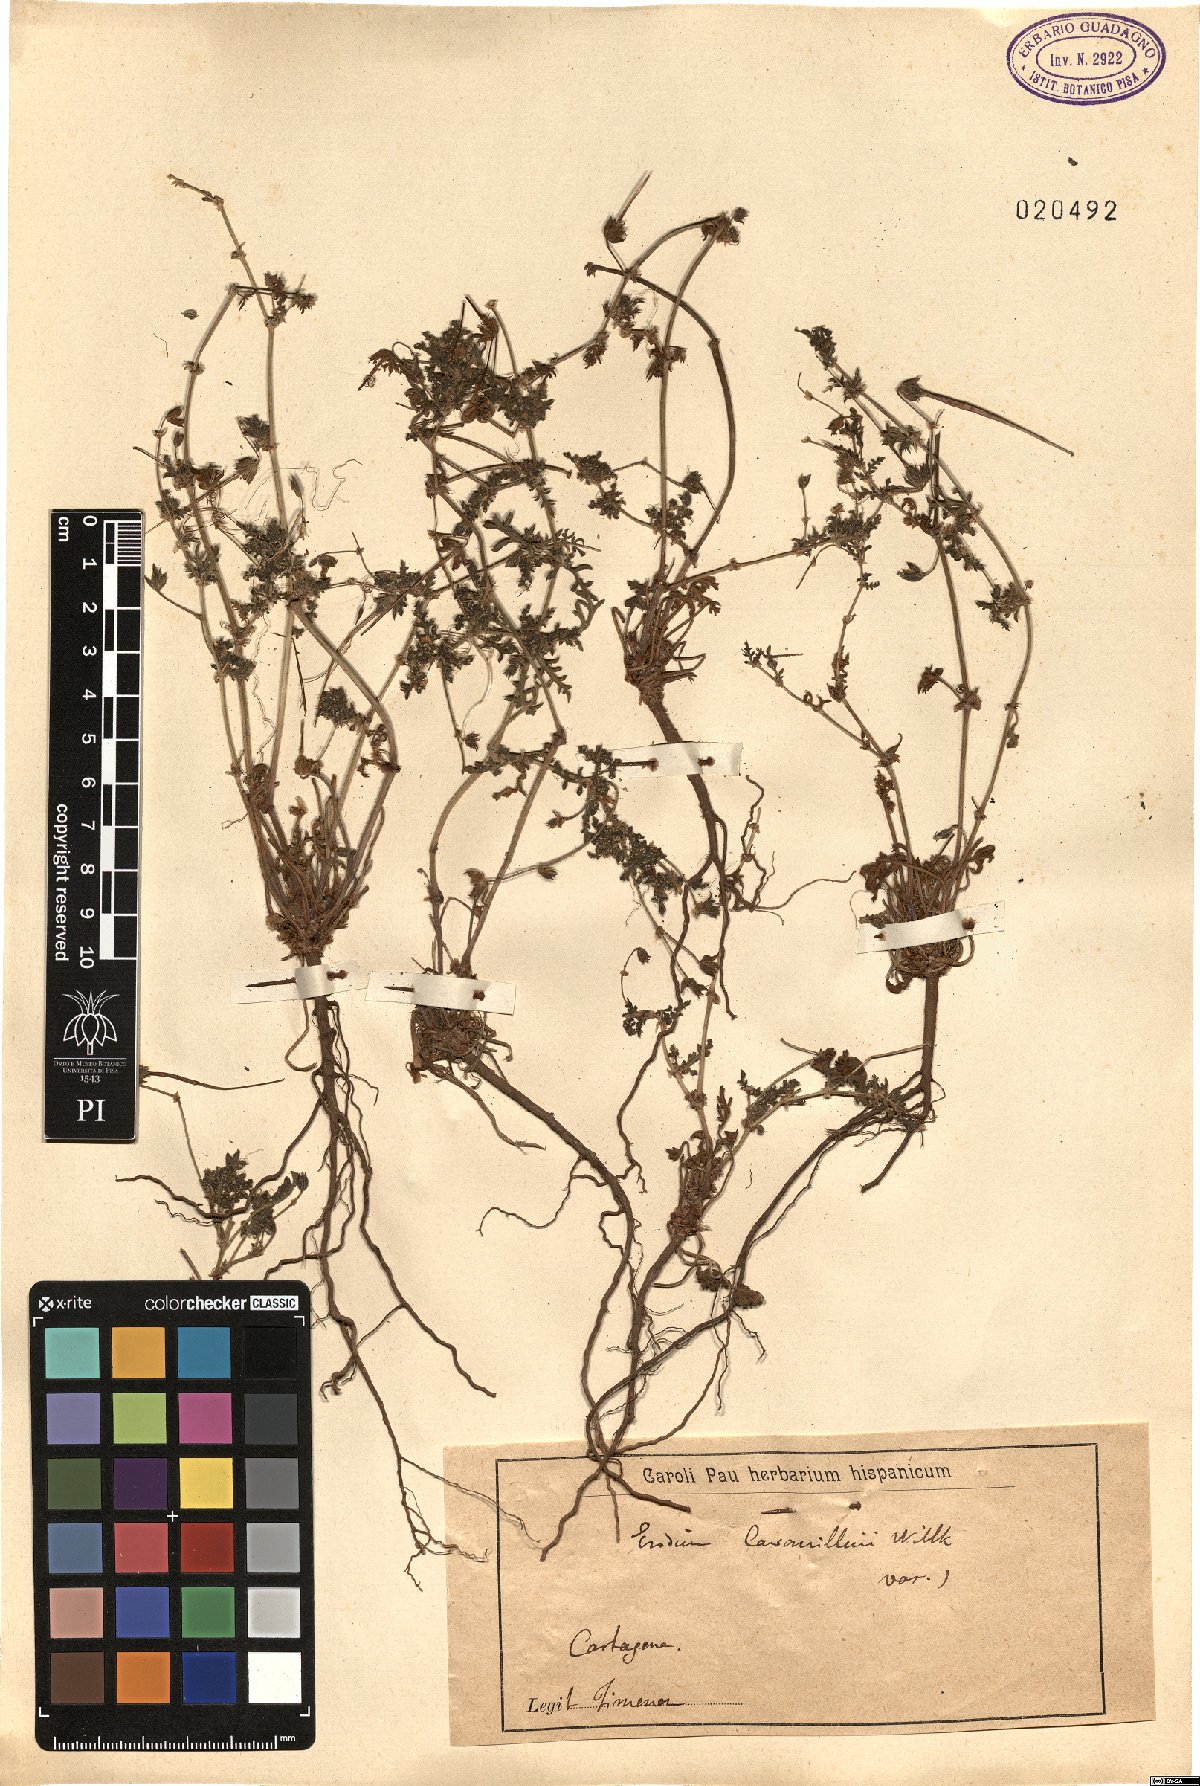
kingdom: Plantae
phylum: Tracheophyta
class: Magnoliopsida
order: Geraniales
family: Geraniaceae
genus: Erodium
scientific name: Erodium tunetanum
